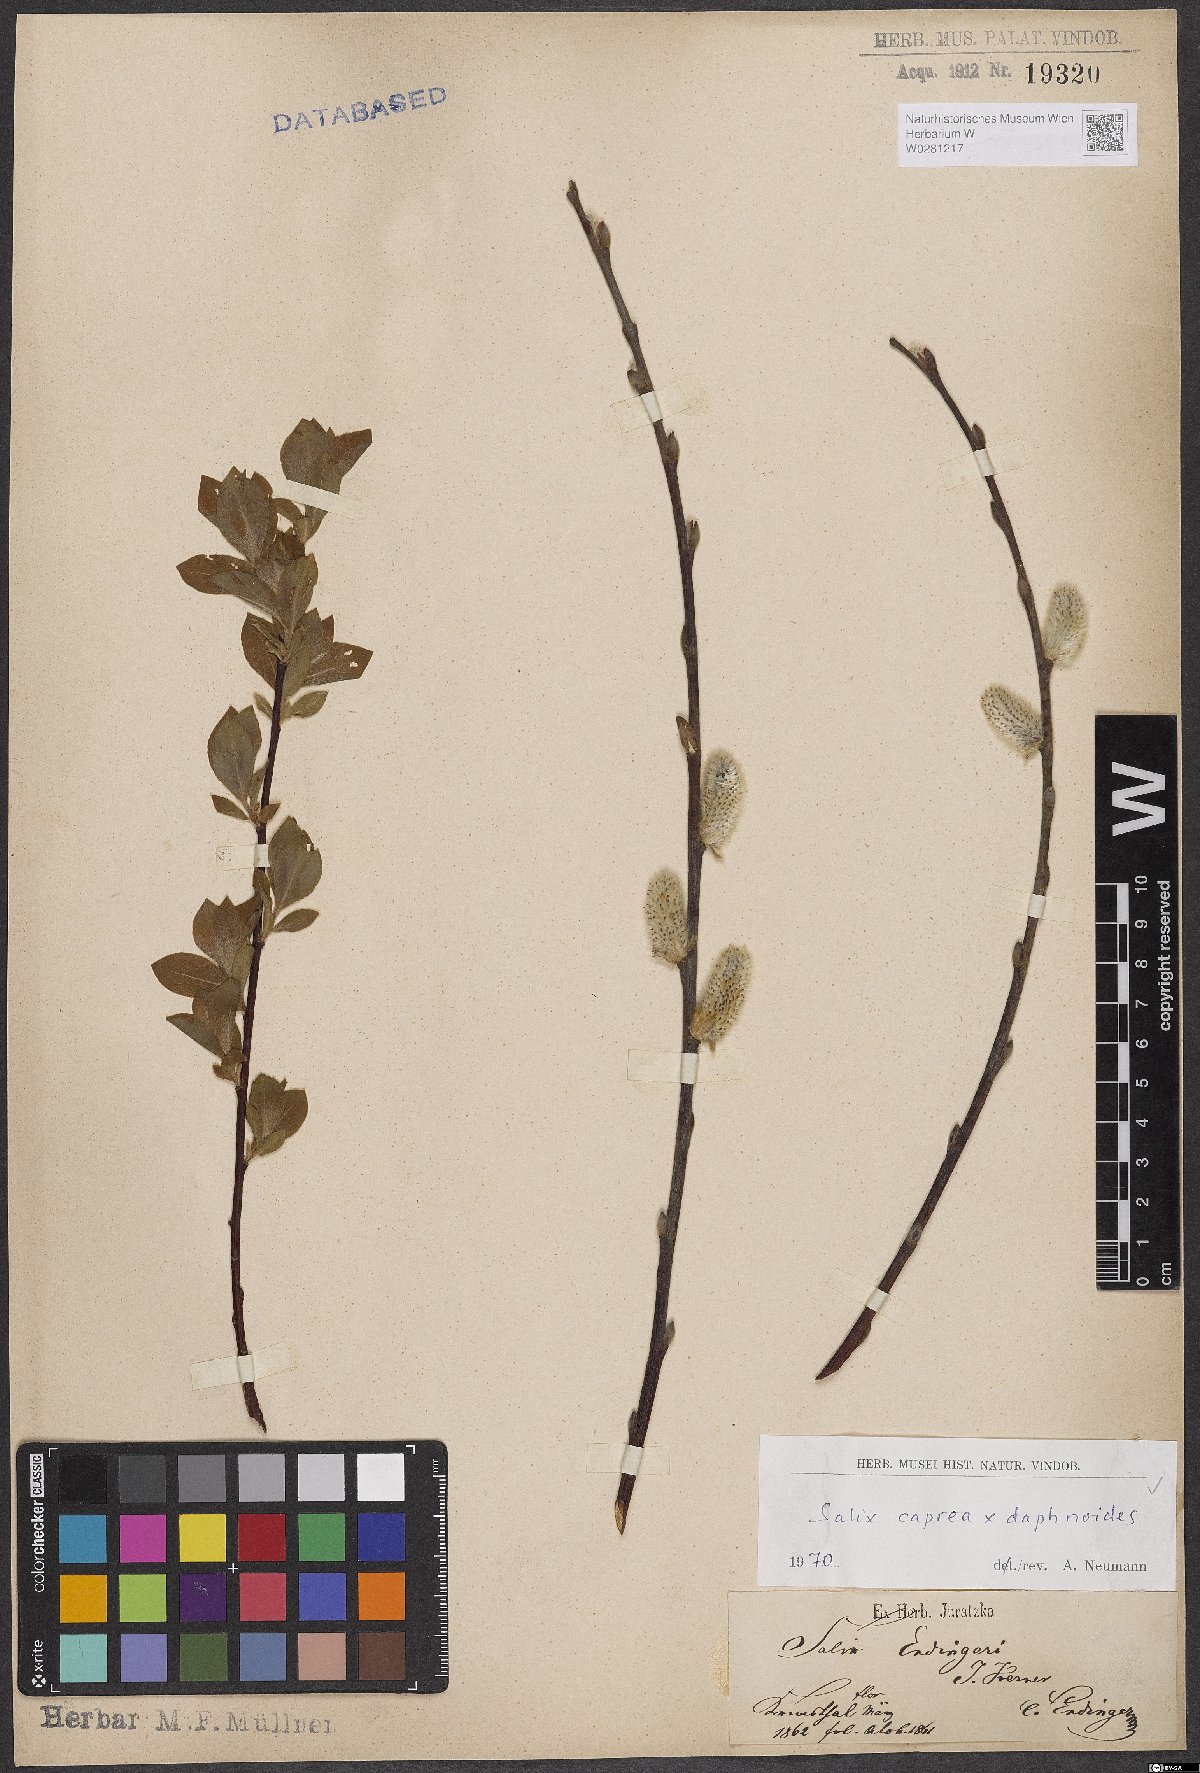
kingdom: Plantae
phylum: Tracheophyta
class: Magnoliopsida
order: Malpighiales
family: Salicaceae
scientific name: Salicaceae
